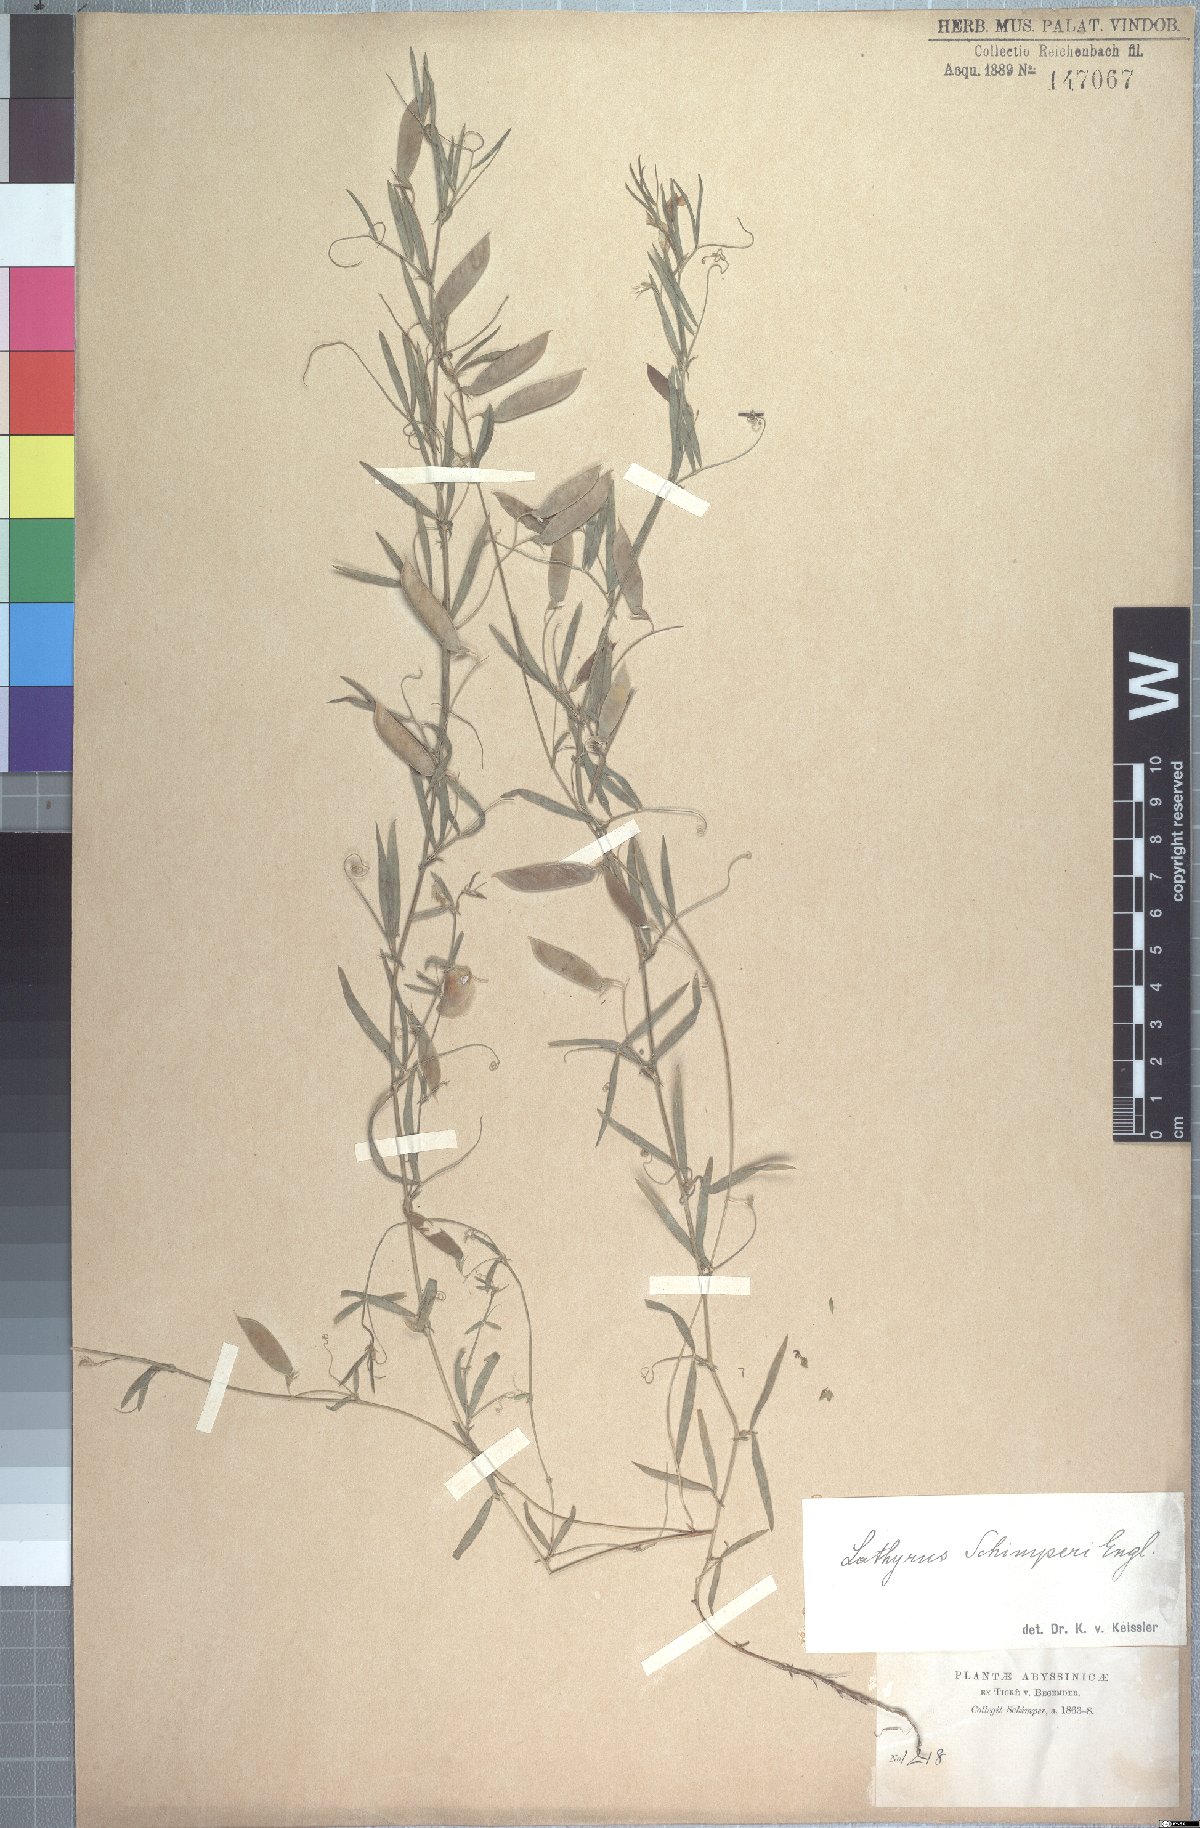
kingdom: Plantae
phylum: Tracheophyta
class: Magnoliopsida
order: Fabales
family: Fabaceae
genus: Vicia
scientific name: Vicia paucifolia
